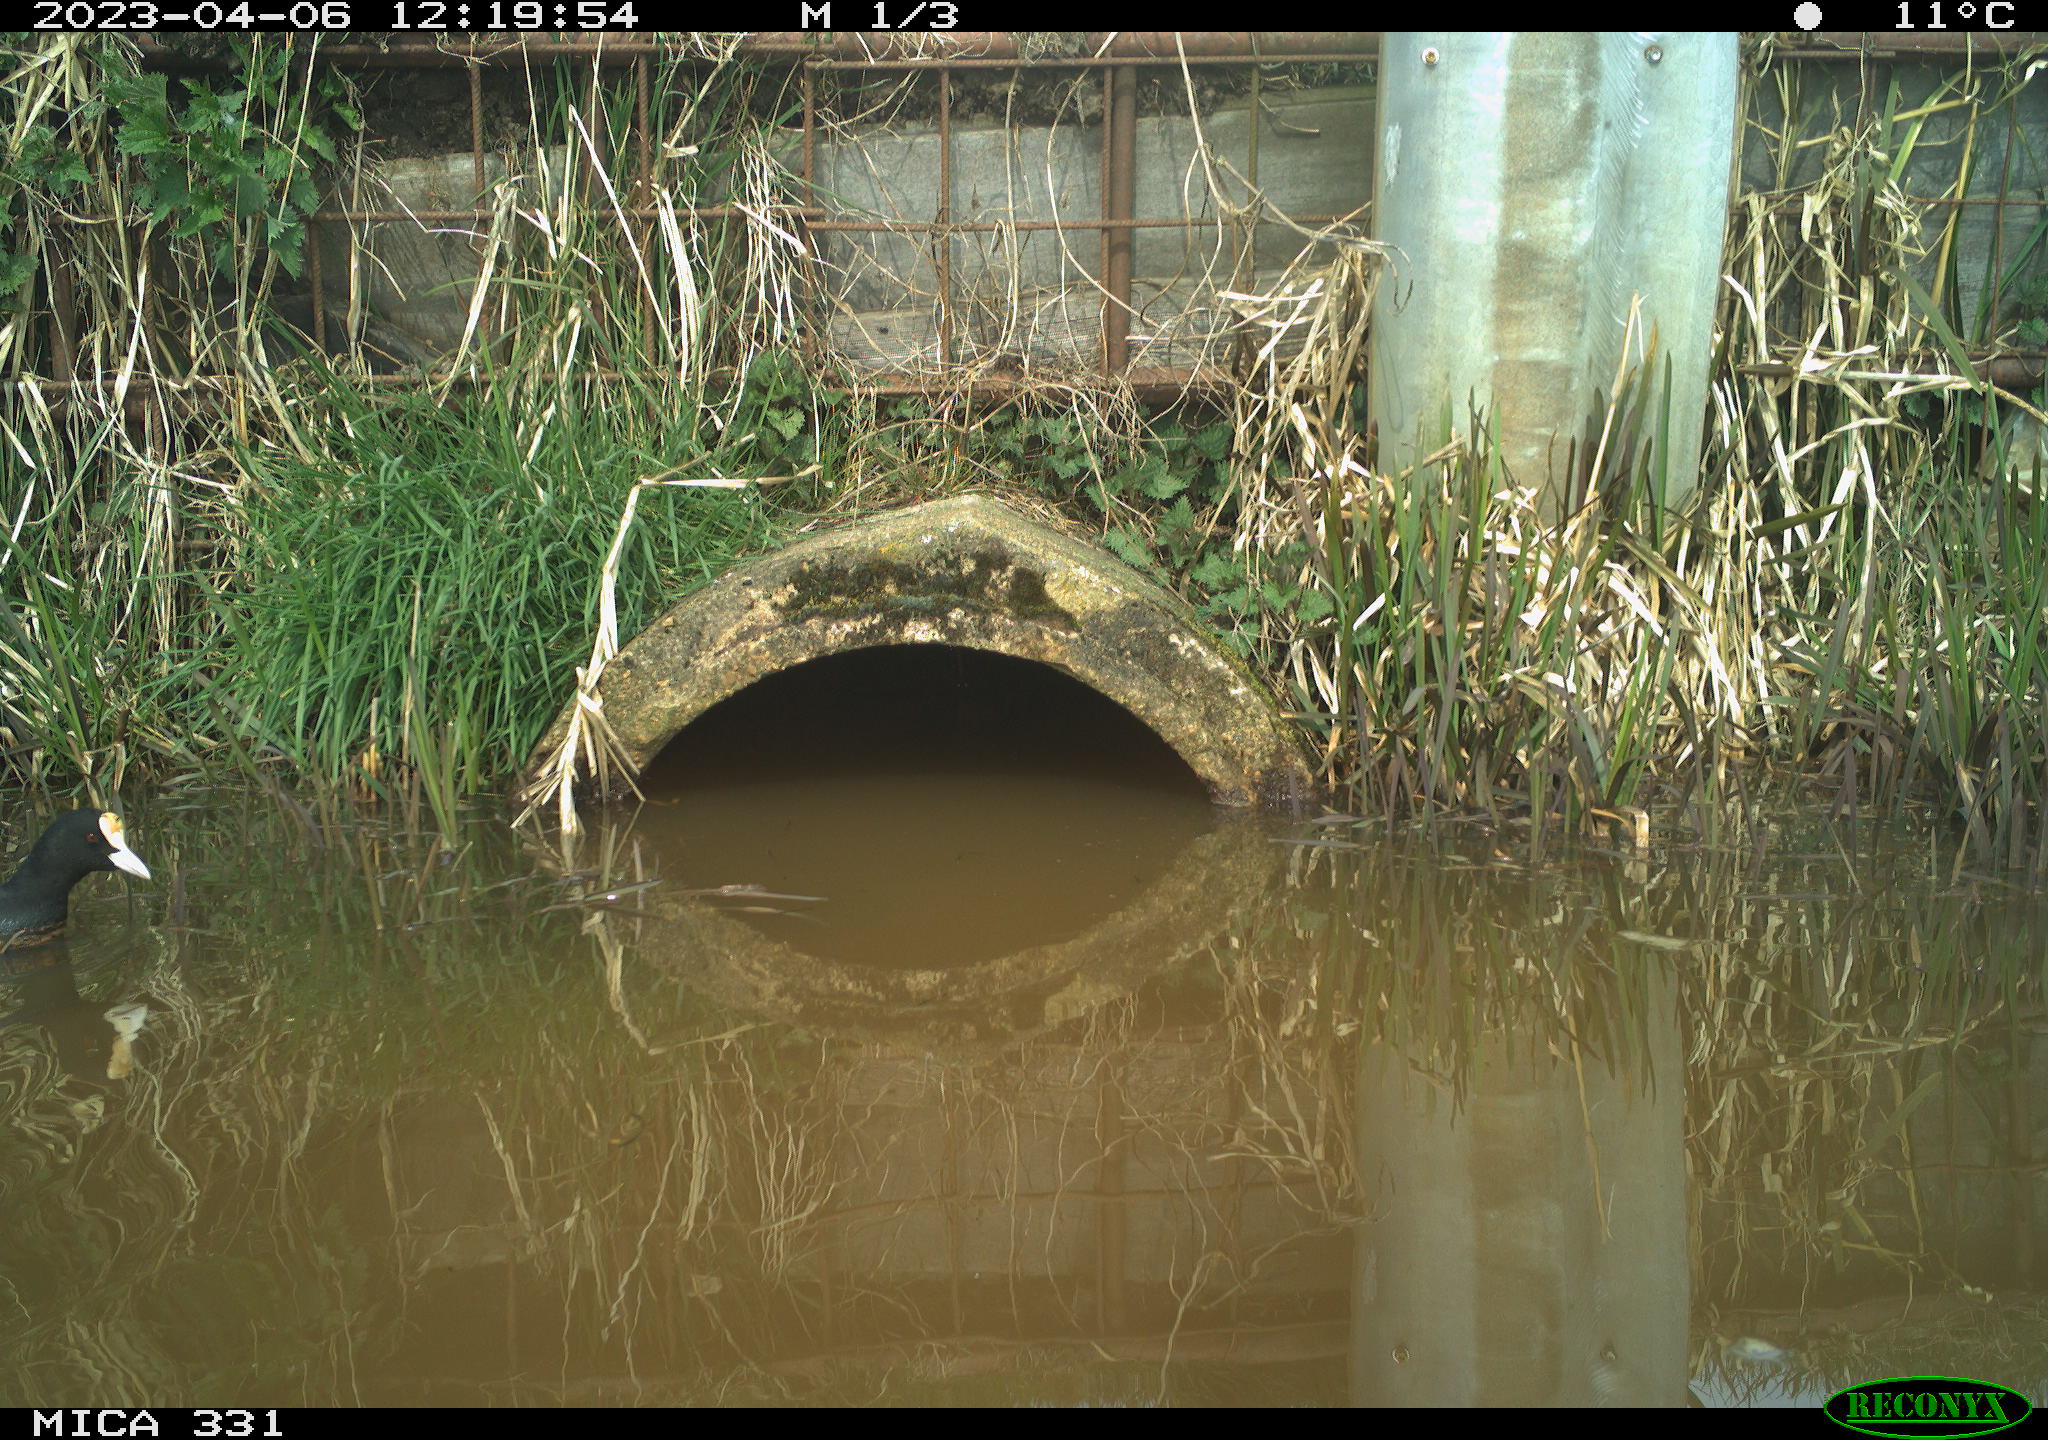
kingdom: Animalia
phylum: Chordata
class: Aves
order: Gruiformes
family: Rallidae
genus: Fulica
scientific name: Fulica atra
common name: Eurasian coot
